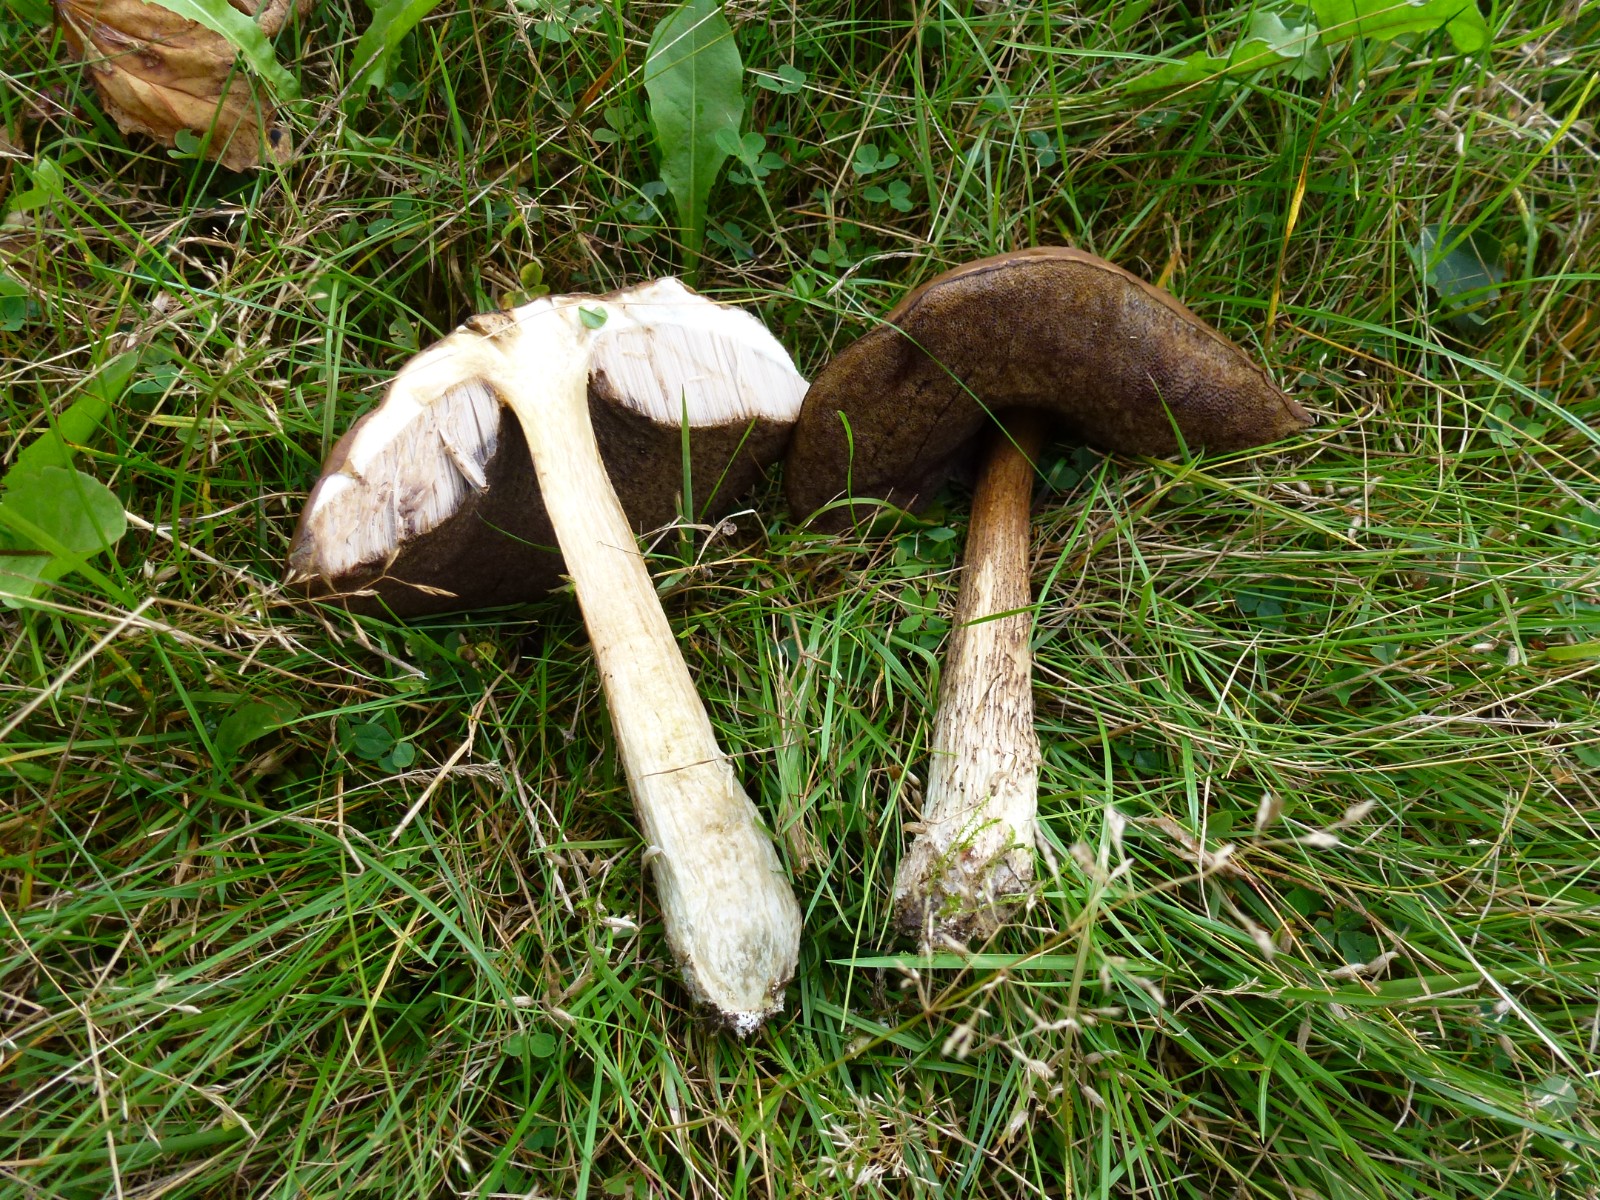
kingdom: Fungi
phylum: Basidiomycota
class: Agaricomycetes
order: Boletales
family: Boletaceae
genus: Leccinum
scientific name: Leccinum
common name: skælrørhat
